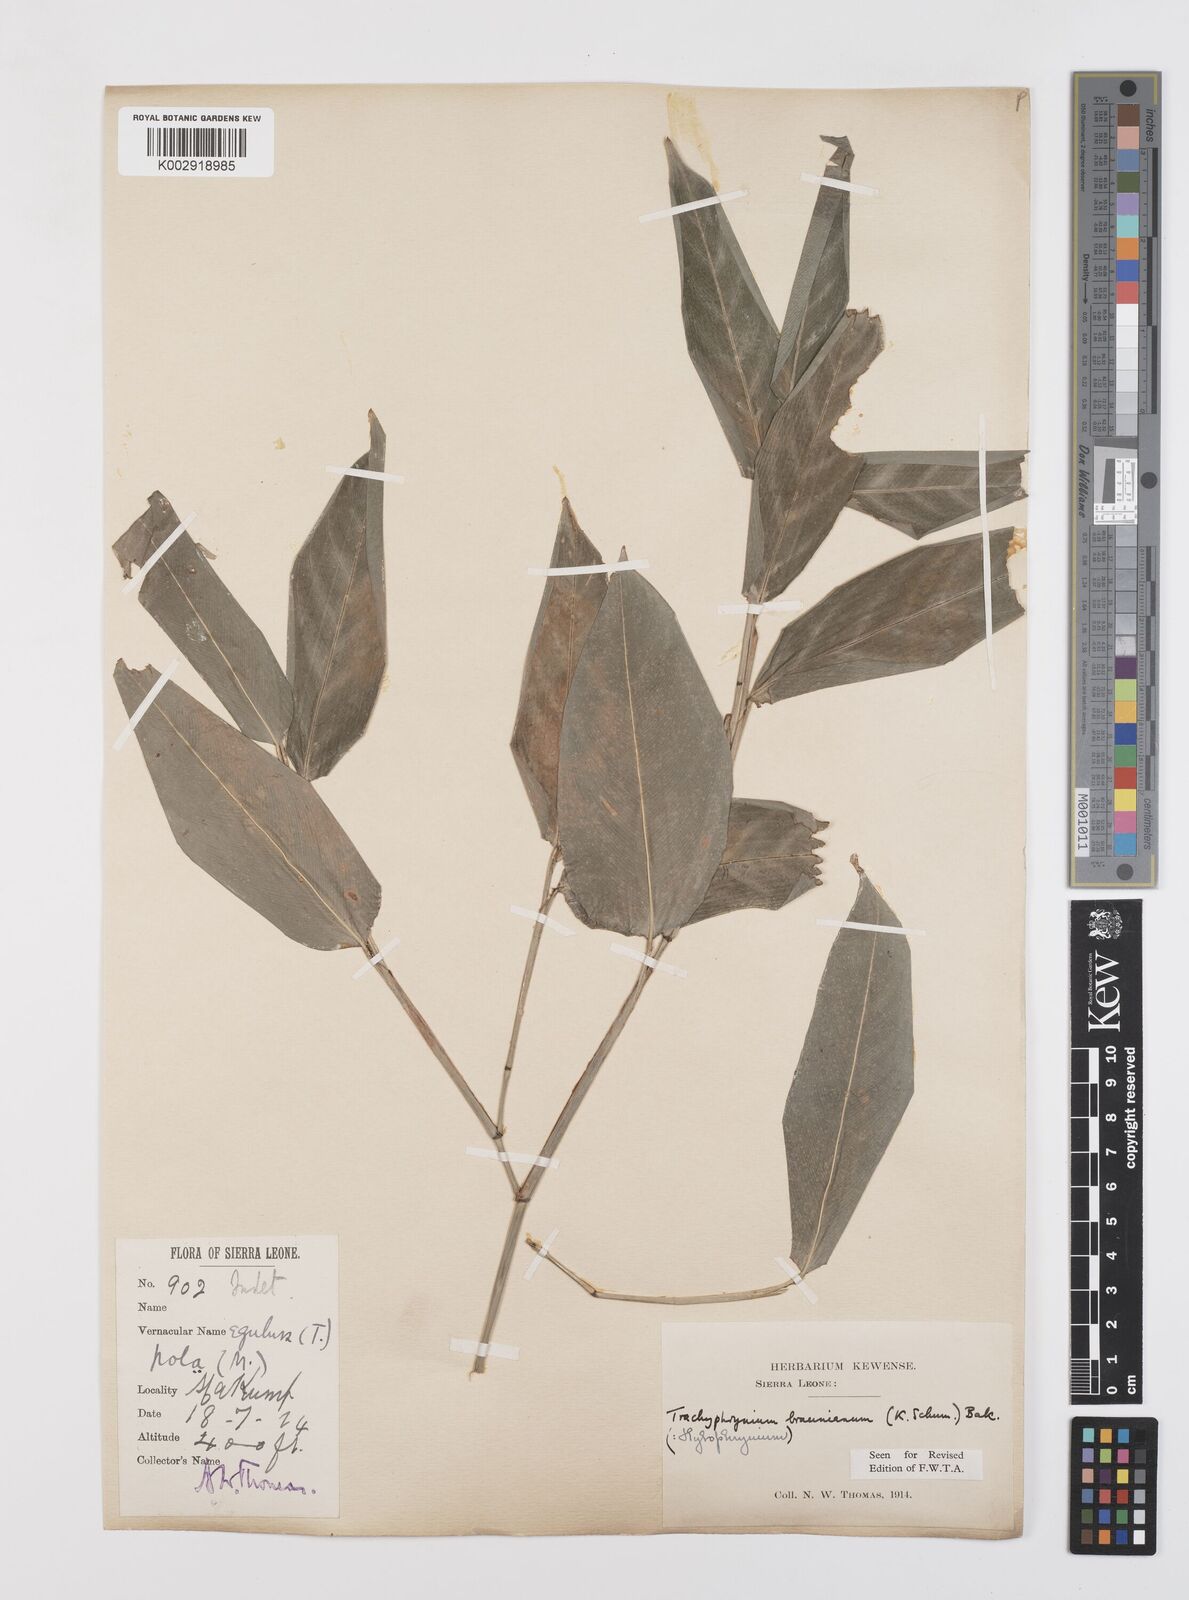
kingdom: Plantae
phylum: Tracheophyta
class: Liliopsida
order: Zingiberales
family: Marantaceae
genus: Trachyphrynium
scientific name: Trachyphrynium braunianum
